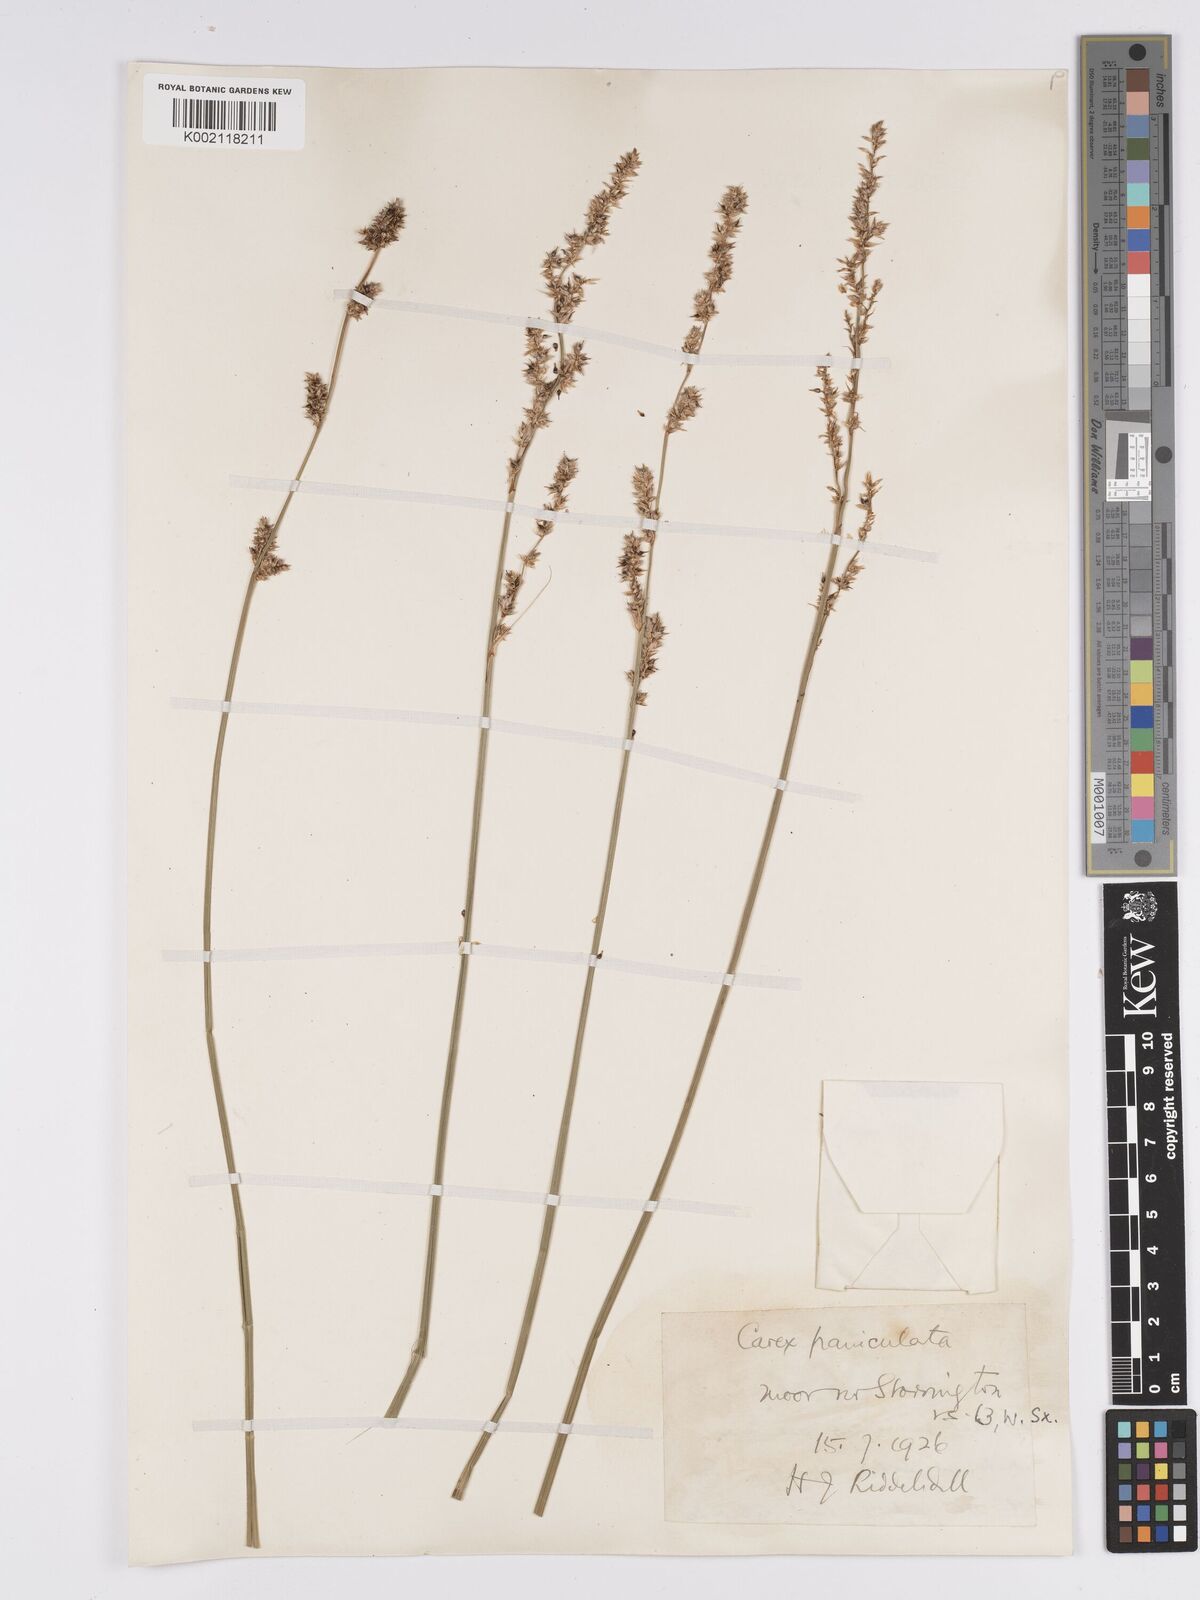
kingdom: Plantae
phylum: Tracheophyta
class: Liliopsida
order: Poales
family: Cyperaceae
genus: Carex
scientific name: Carex paniculata
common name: Greater tussock-sedge
